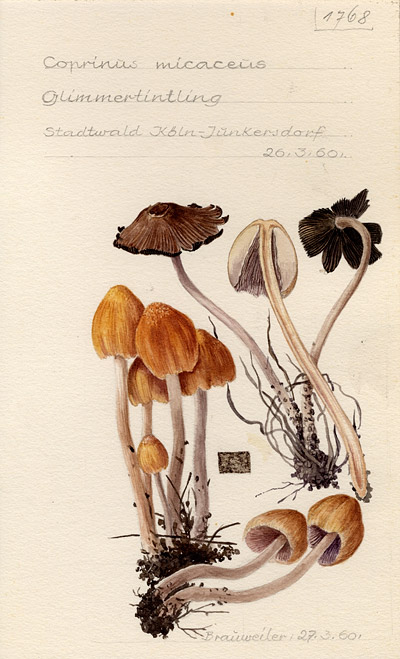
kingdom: Fungi
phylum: Basidiomycota
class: Agaricomycetes
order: Agaricales
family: Psathyrellaceae
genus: Coprinellus
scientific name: Coprinellus micaceus
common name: Glistening ink-cap
